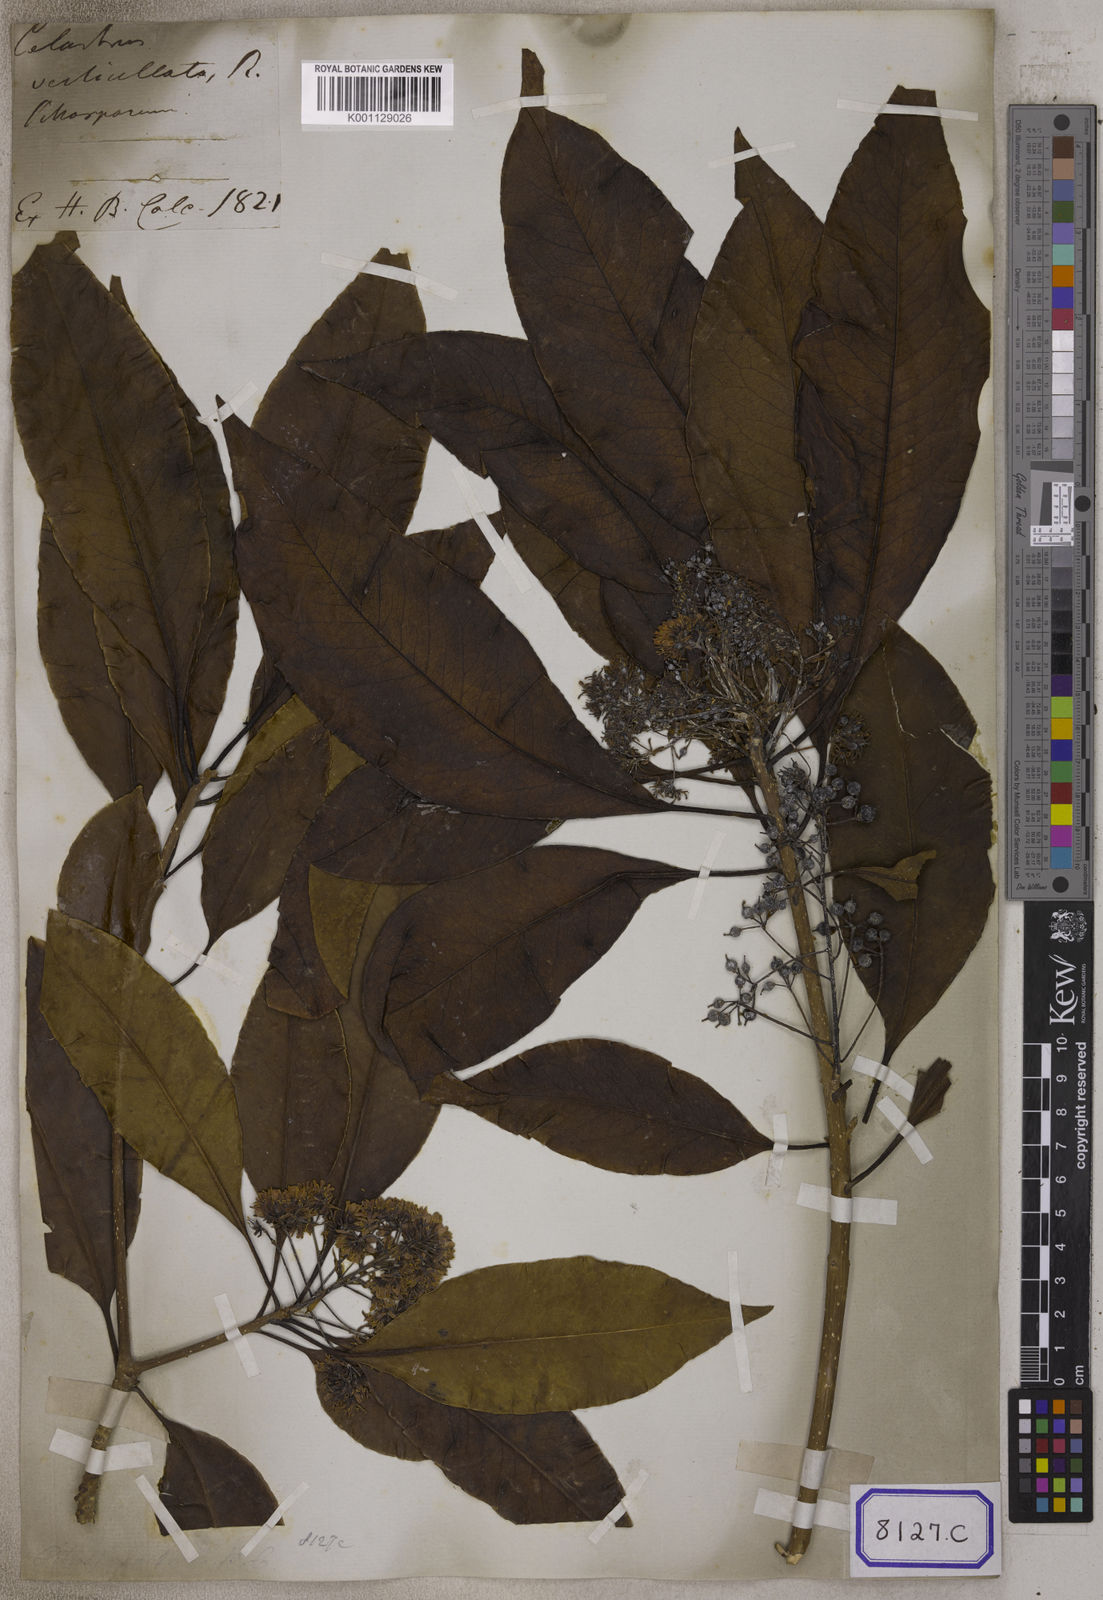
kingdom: Plantae
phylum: Tracheophyta
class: Magnoliopsida
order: Apiales
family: Pittosporaceae
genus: Pittosporum
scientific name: Pittosporum
